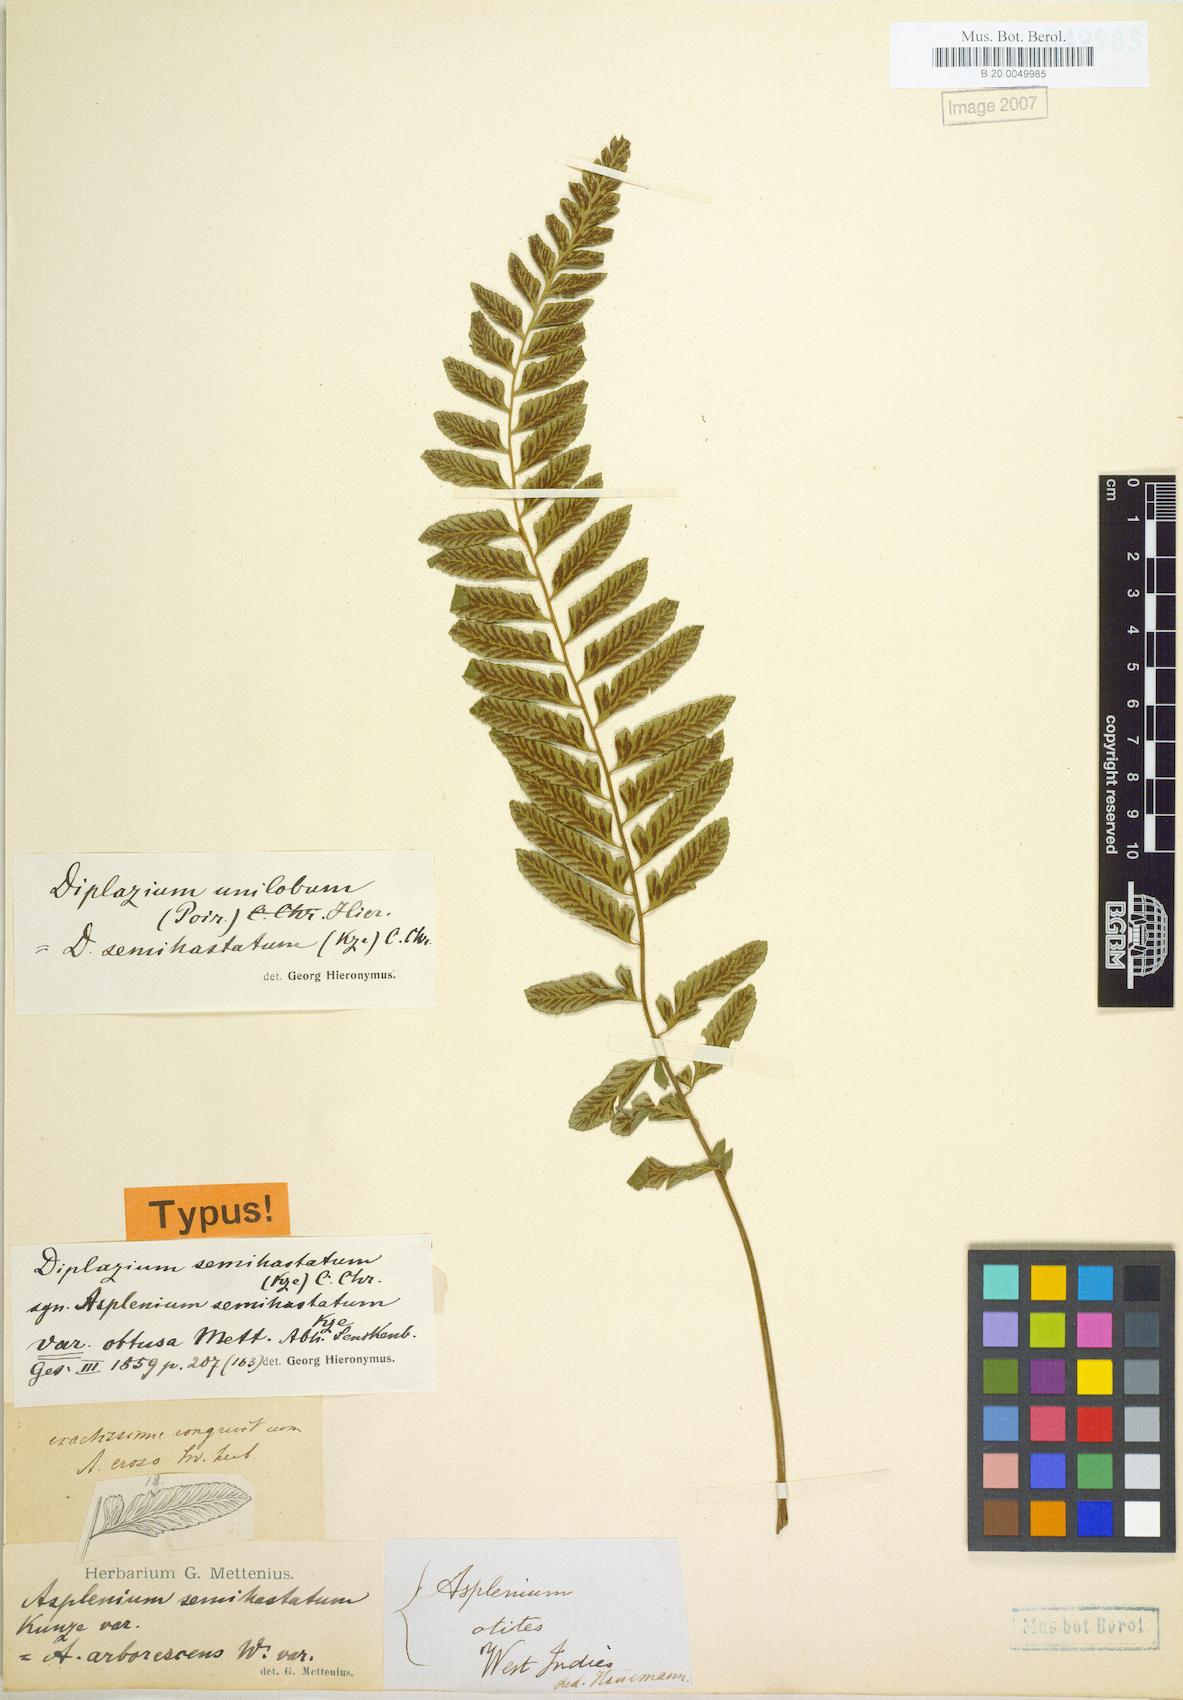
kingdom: Plantae
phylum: Tracheophyta
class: Polypodiopsida
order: Polypodiales
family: Athyriaceae
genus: Diplazium
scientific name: Diplazium unilobum
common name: Singlelobe twinsorus fern
